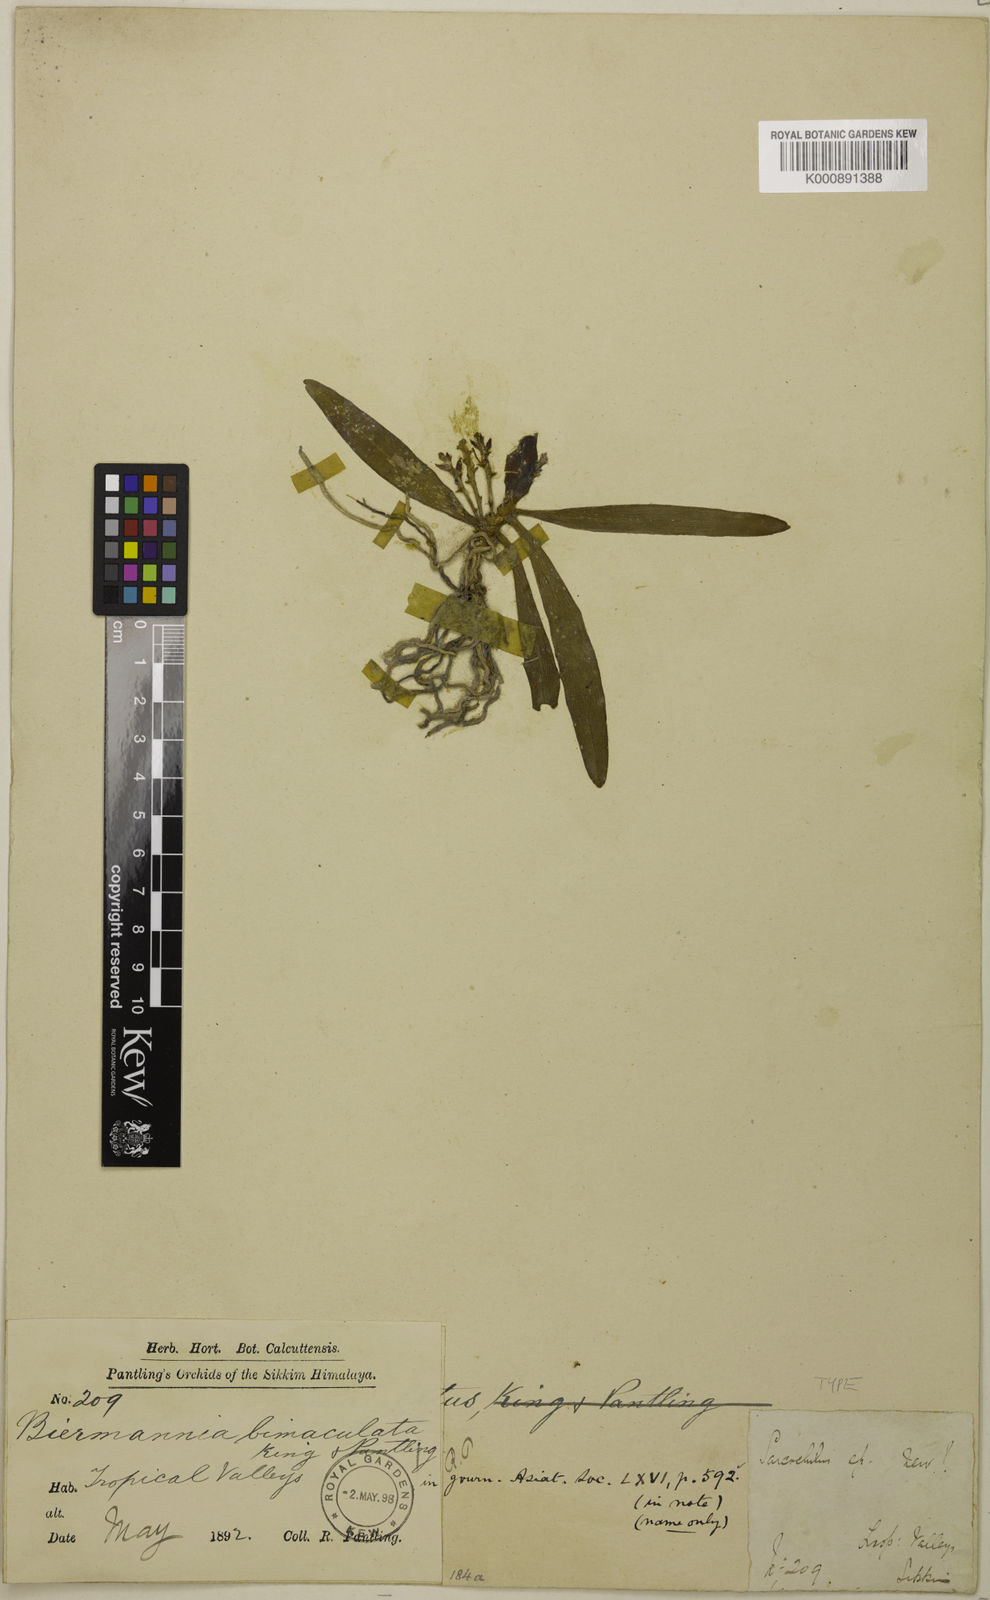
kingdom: Plantae
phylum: Tracheophyta
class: Liliopsida
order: Asparagales
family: Orchidaceae
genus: Biermannia
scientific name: Biermannia bimaculata
